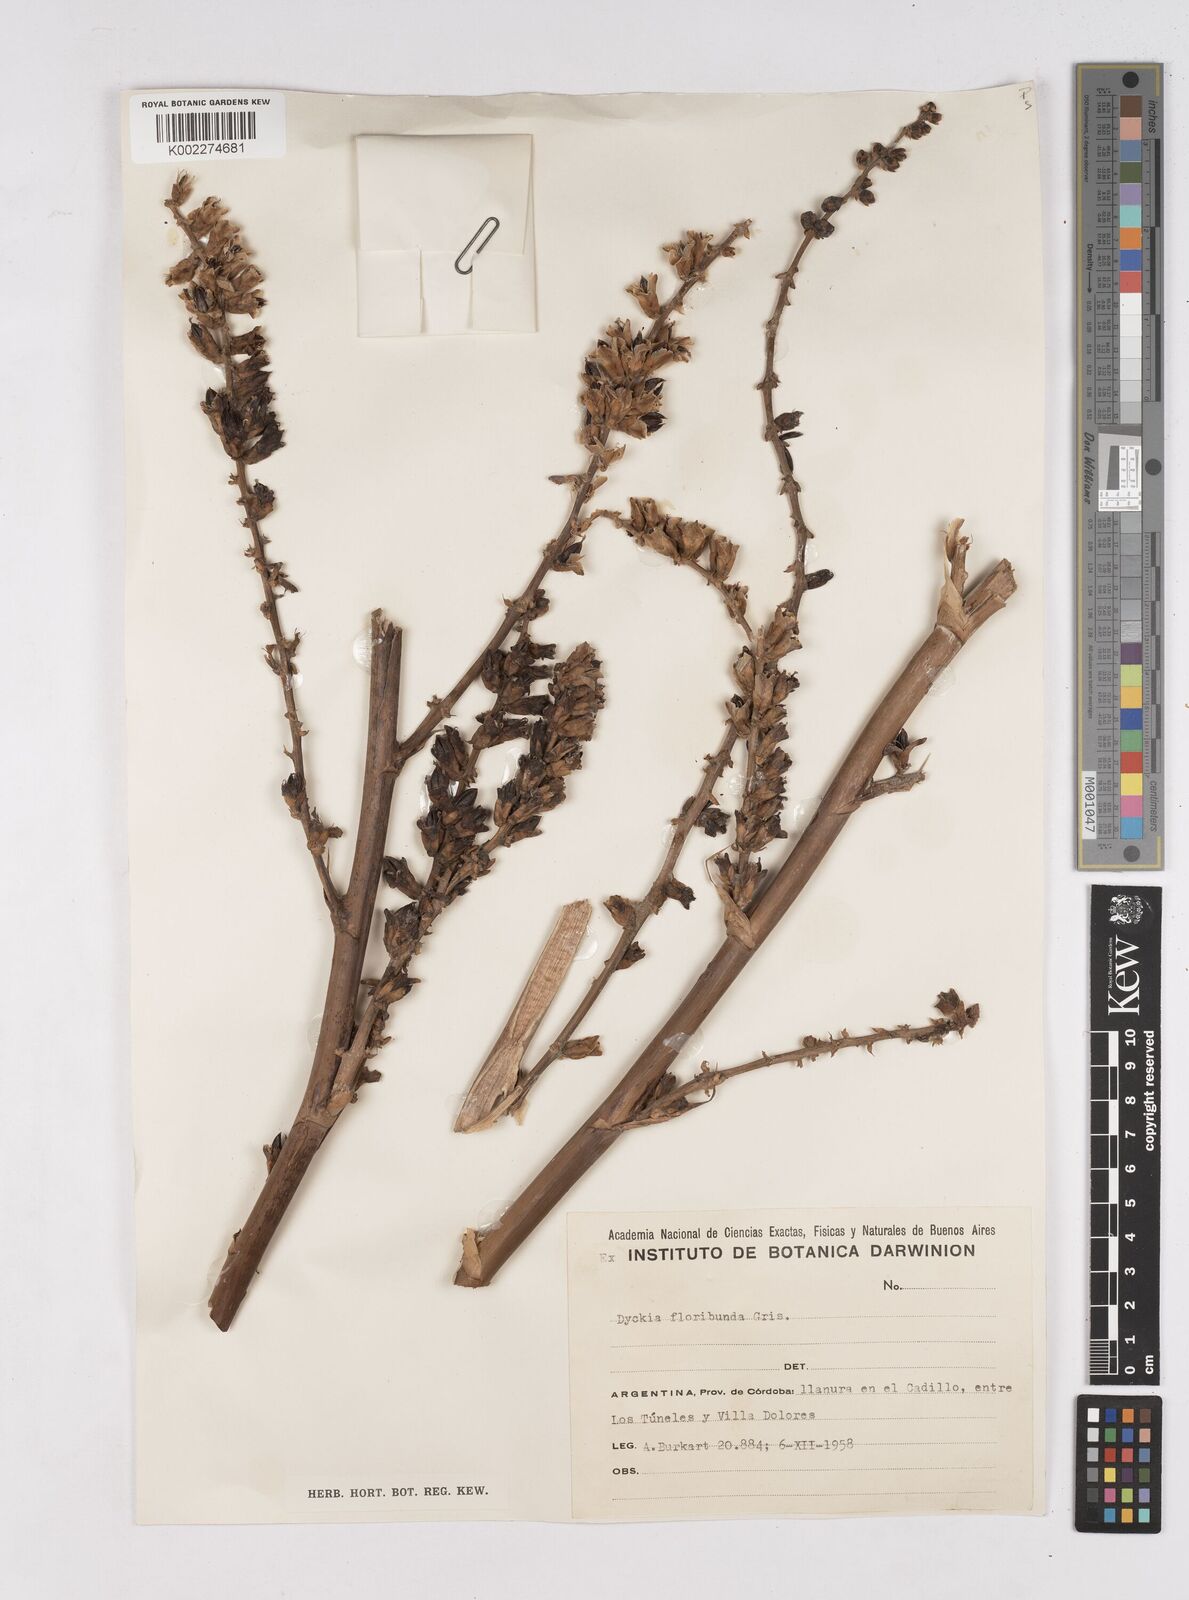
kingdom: Plantae
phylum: Tracheophyta
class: Liliopsida
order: Poales
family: Bromeliaceae
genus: Dyckia
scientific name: Dyckia floribunda
